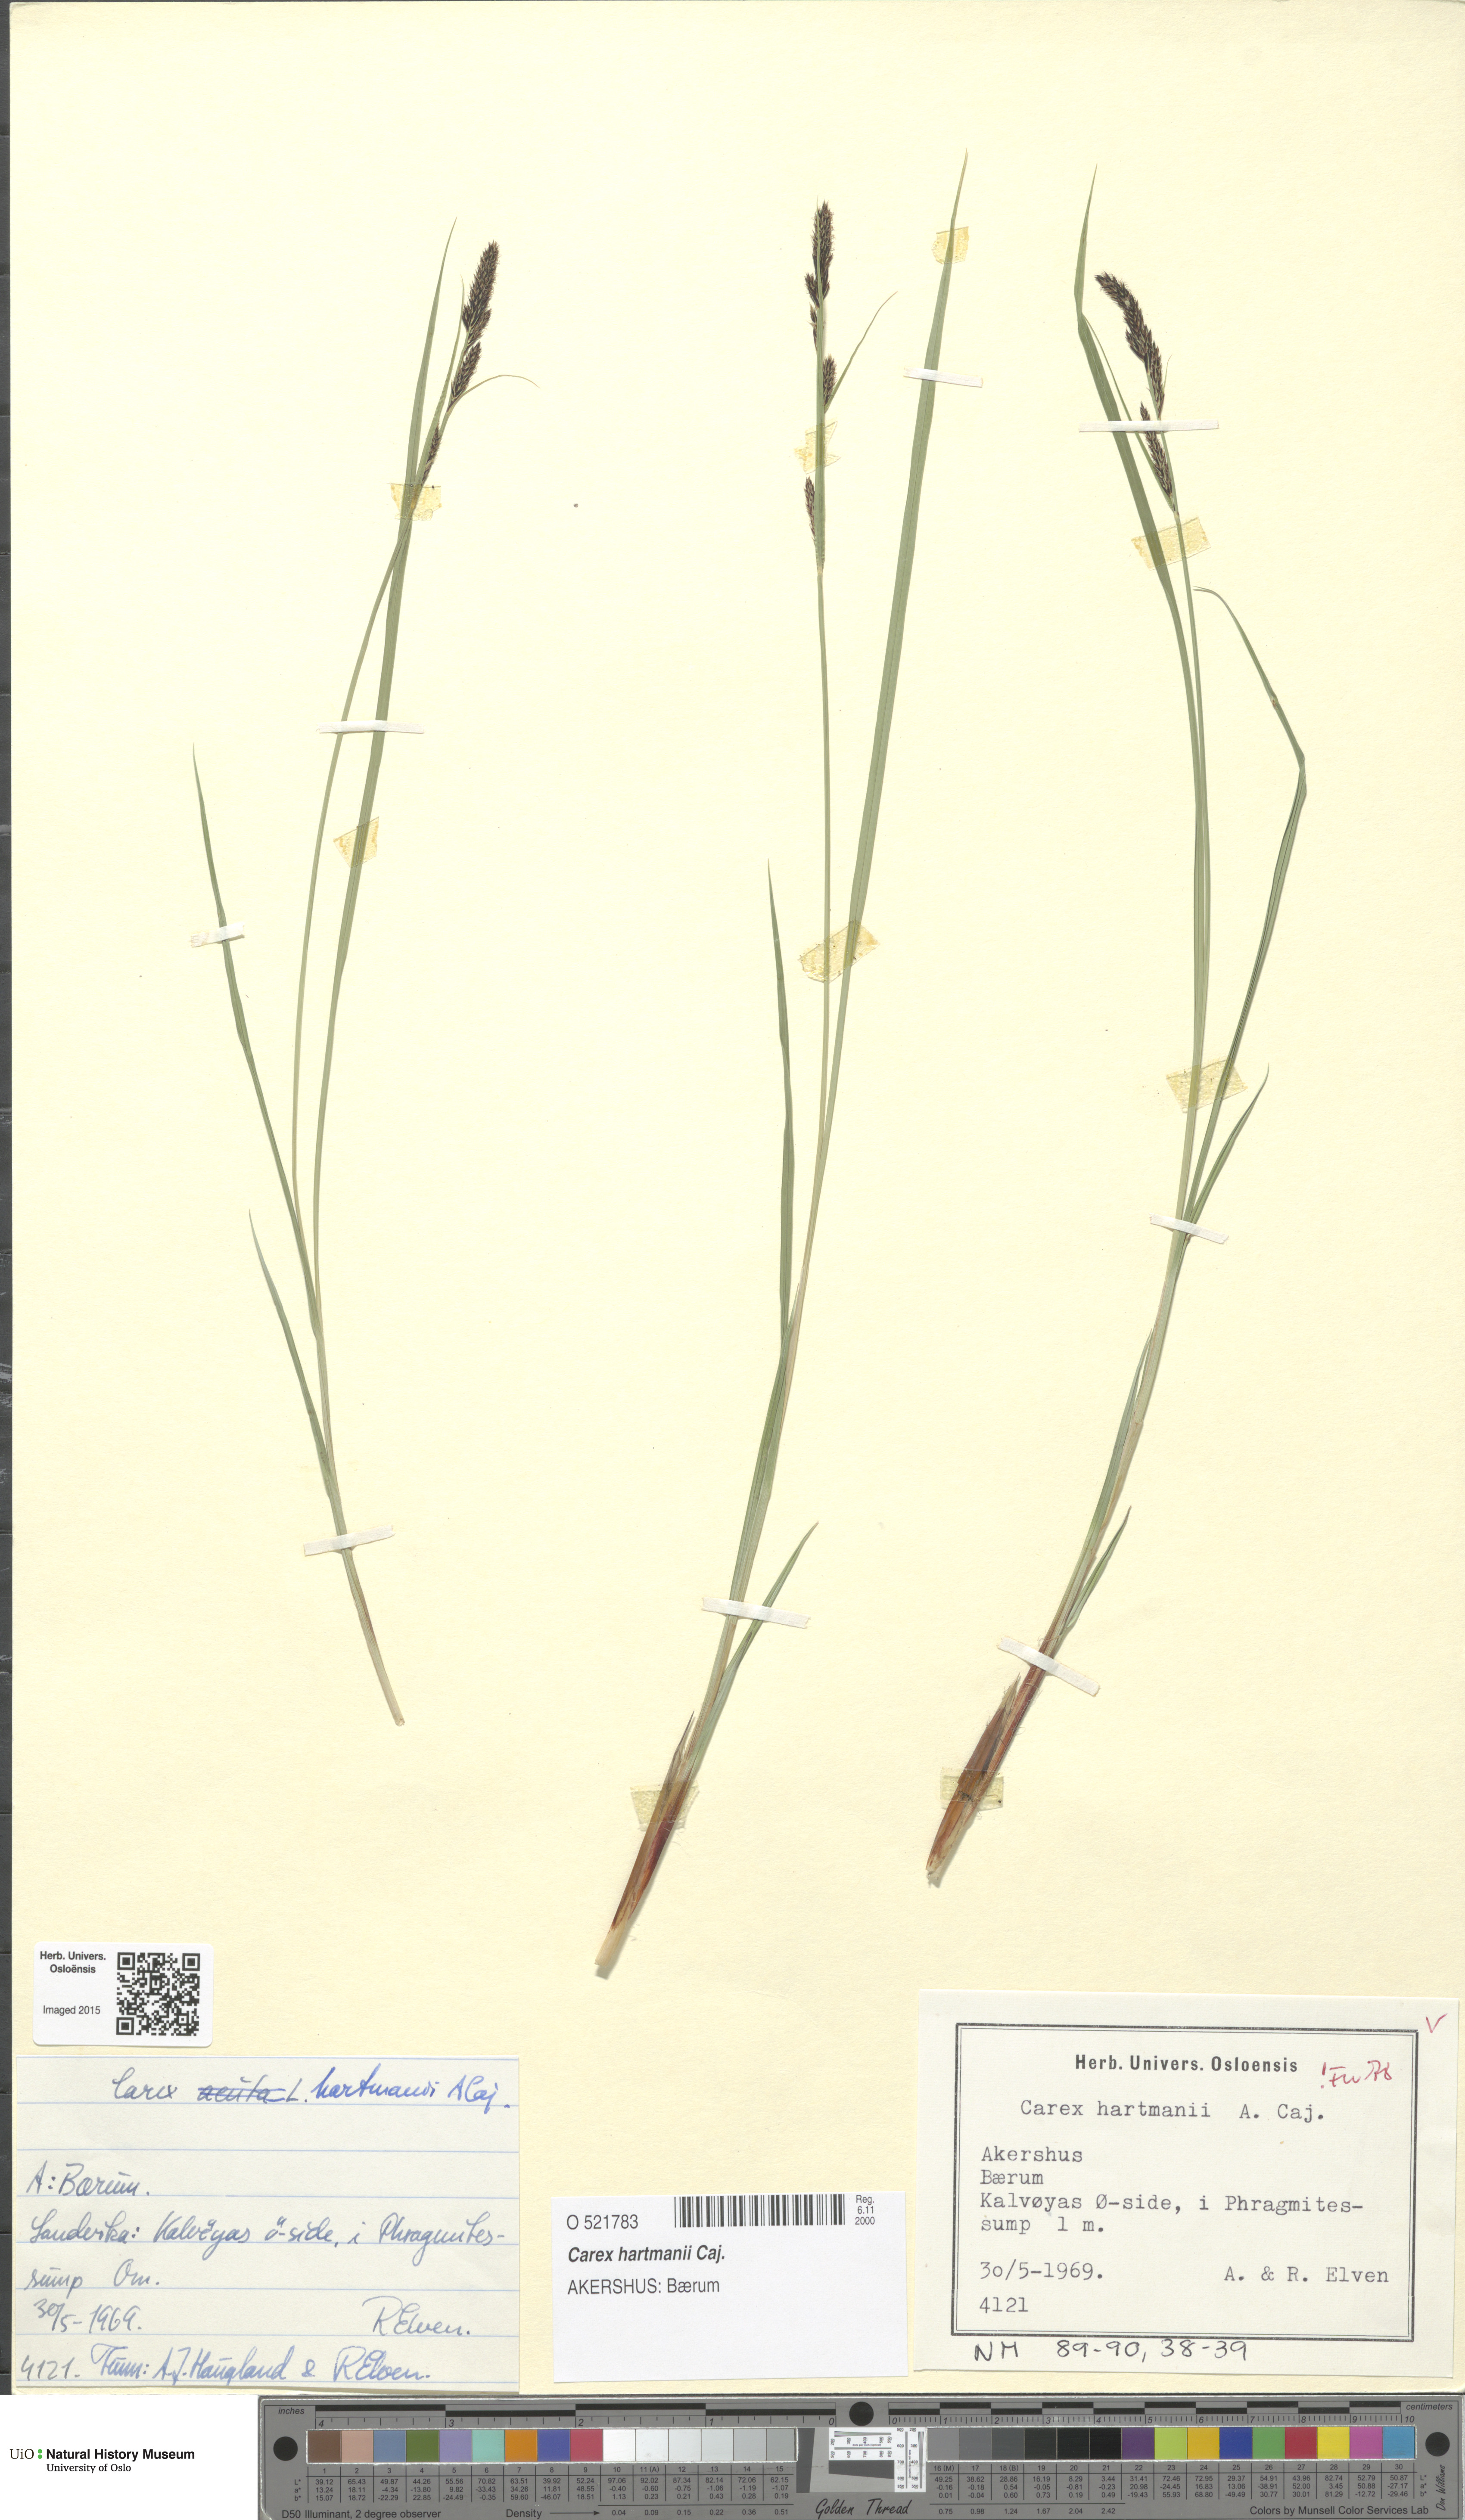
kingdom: Plantae
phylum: Tracheophyta
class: Liliopsida
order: Poales
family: Cyperaceae
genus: Carex
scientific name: Carex hartmaniorum
